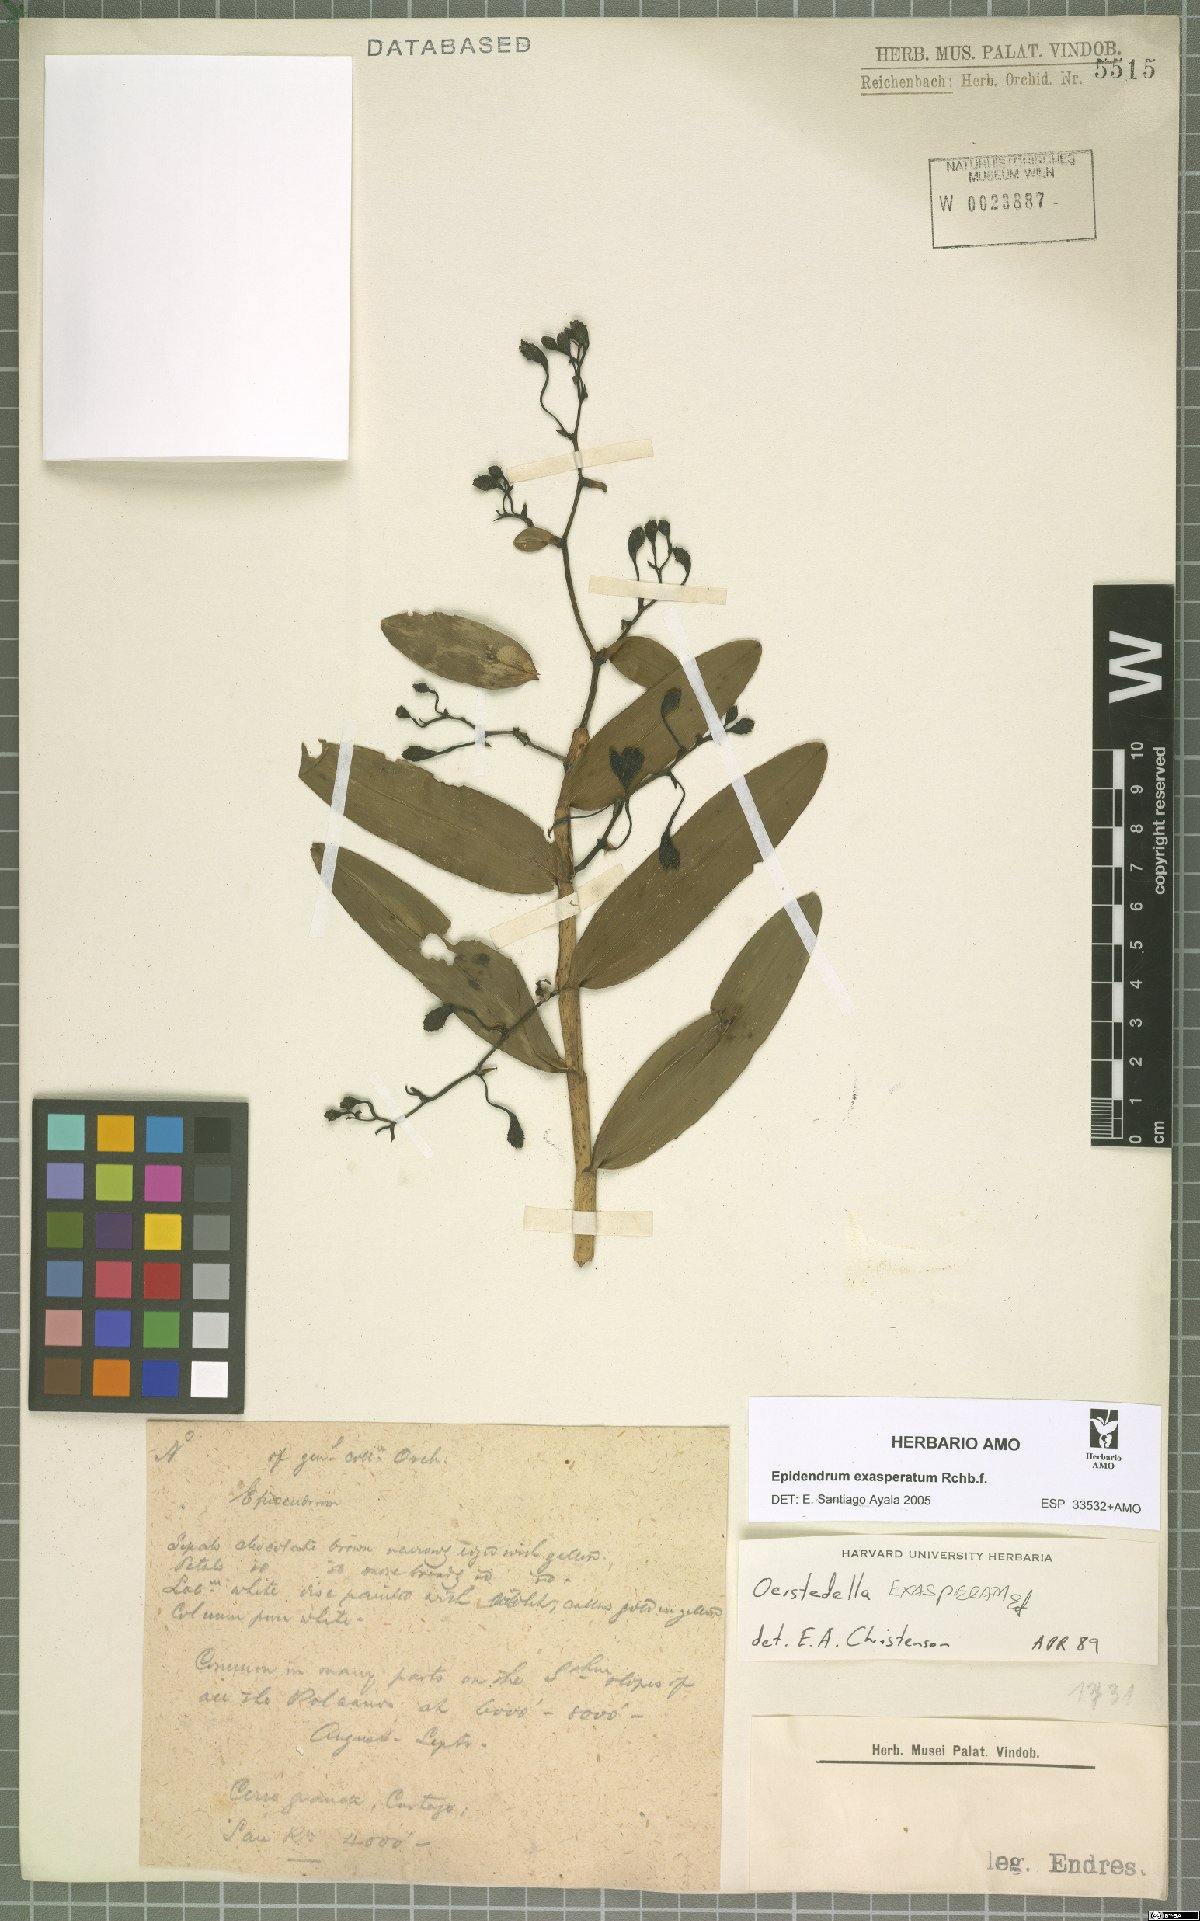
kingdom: Plantae
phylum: Tracheophyta
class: Liliopsida
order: Asparagales
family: Orchidaceae
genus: Epidendrum
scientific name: Epidendrum exasperatum
